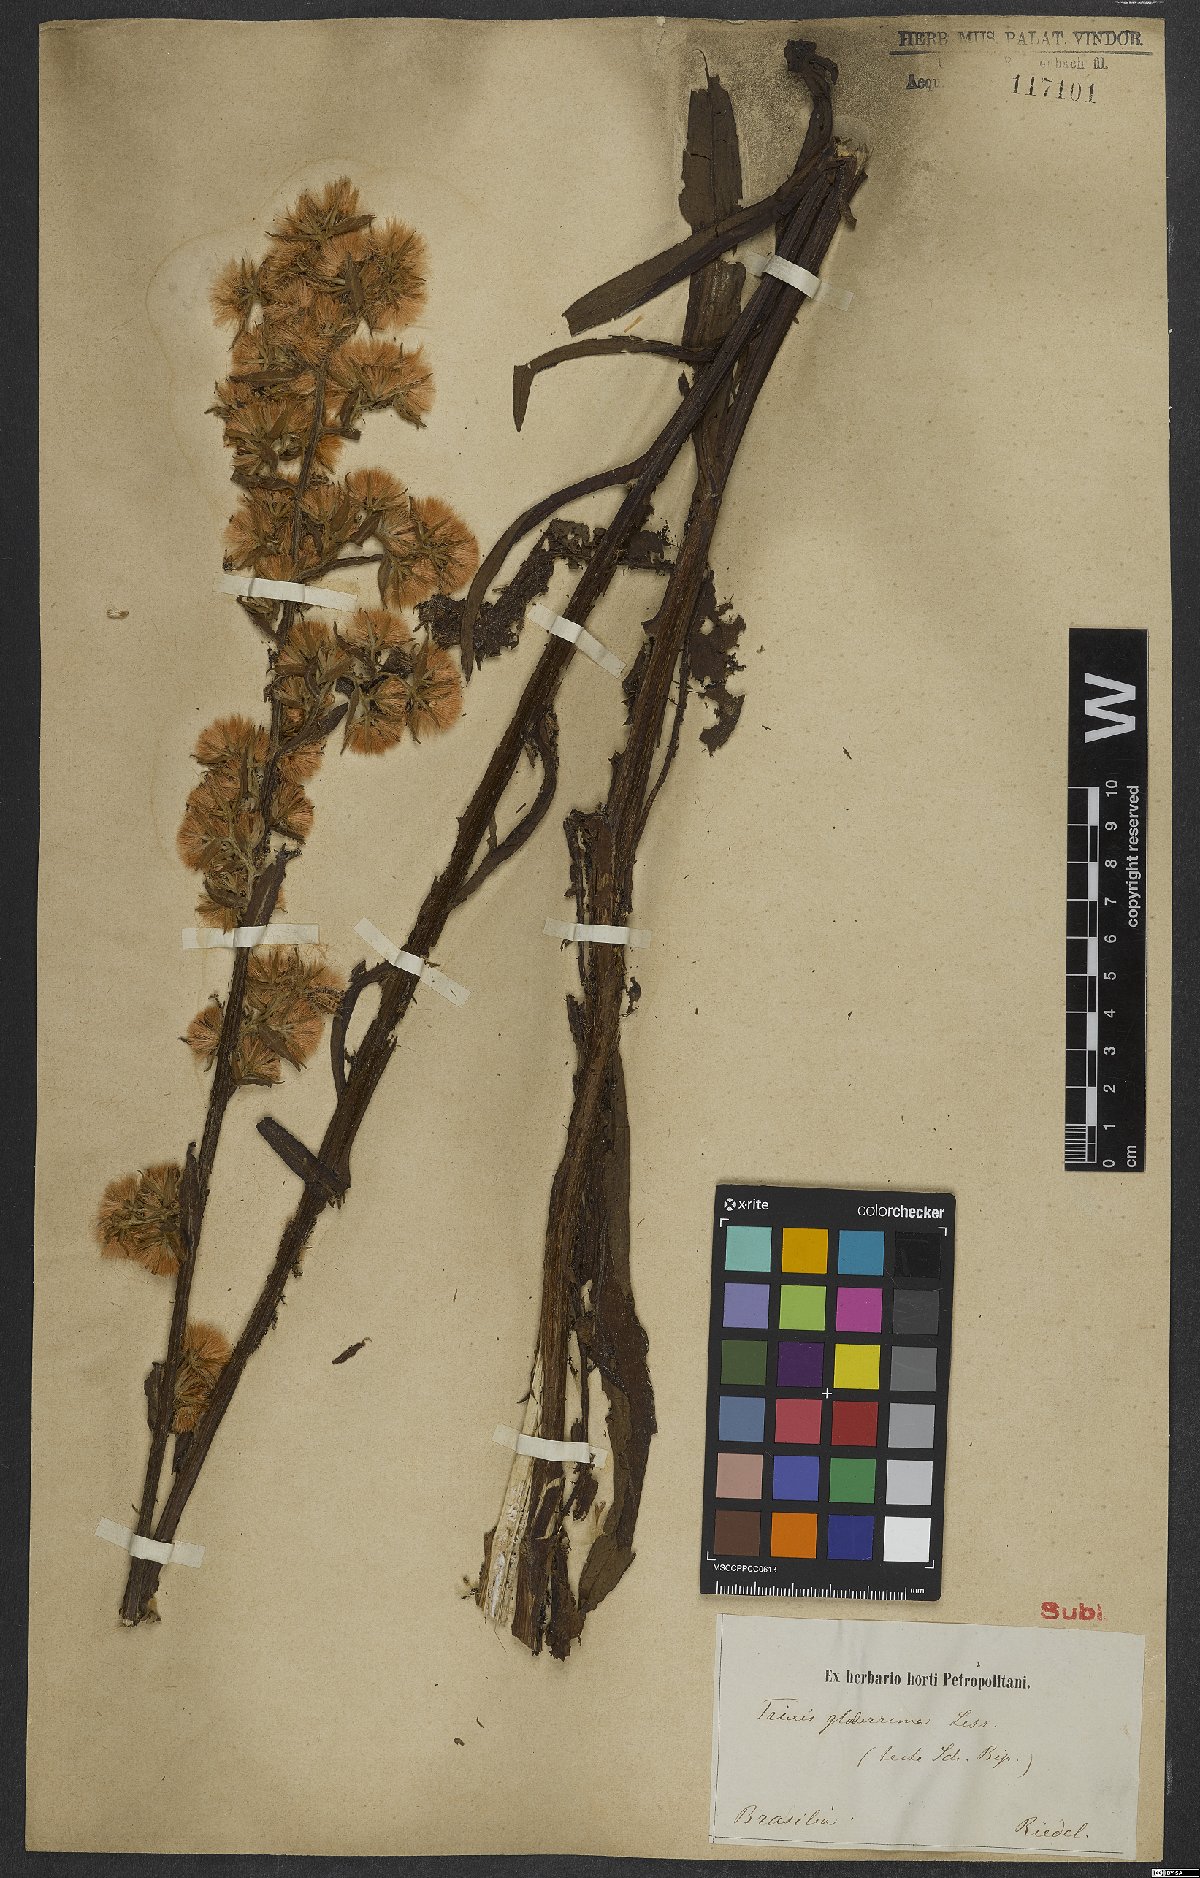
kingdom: Plantae
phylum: Tracheophyta
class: Magnoliopsida
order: Asterales
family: Asteraceae
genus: Trixis
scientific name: Trixis nobilis
